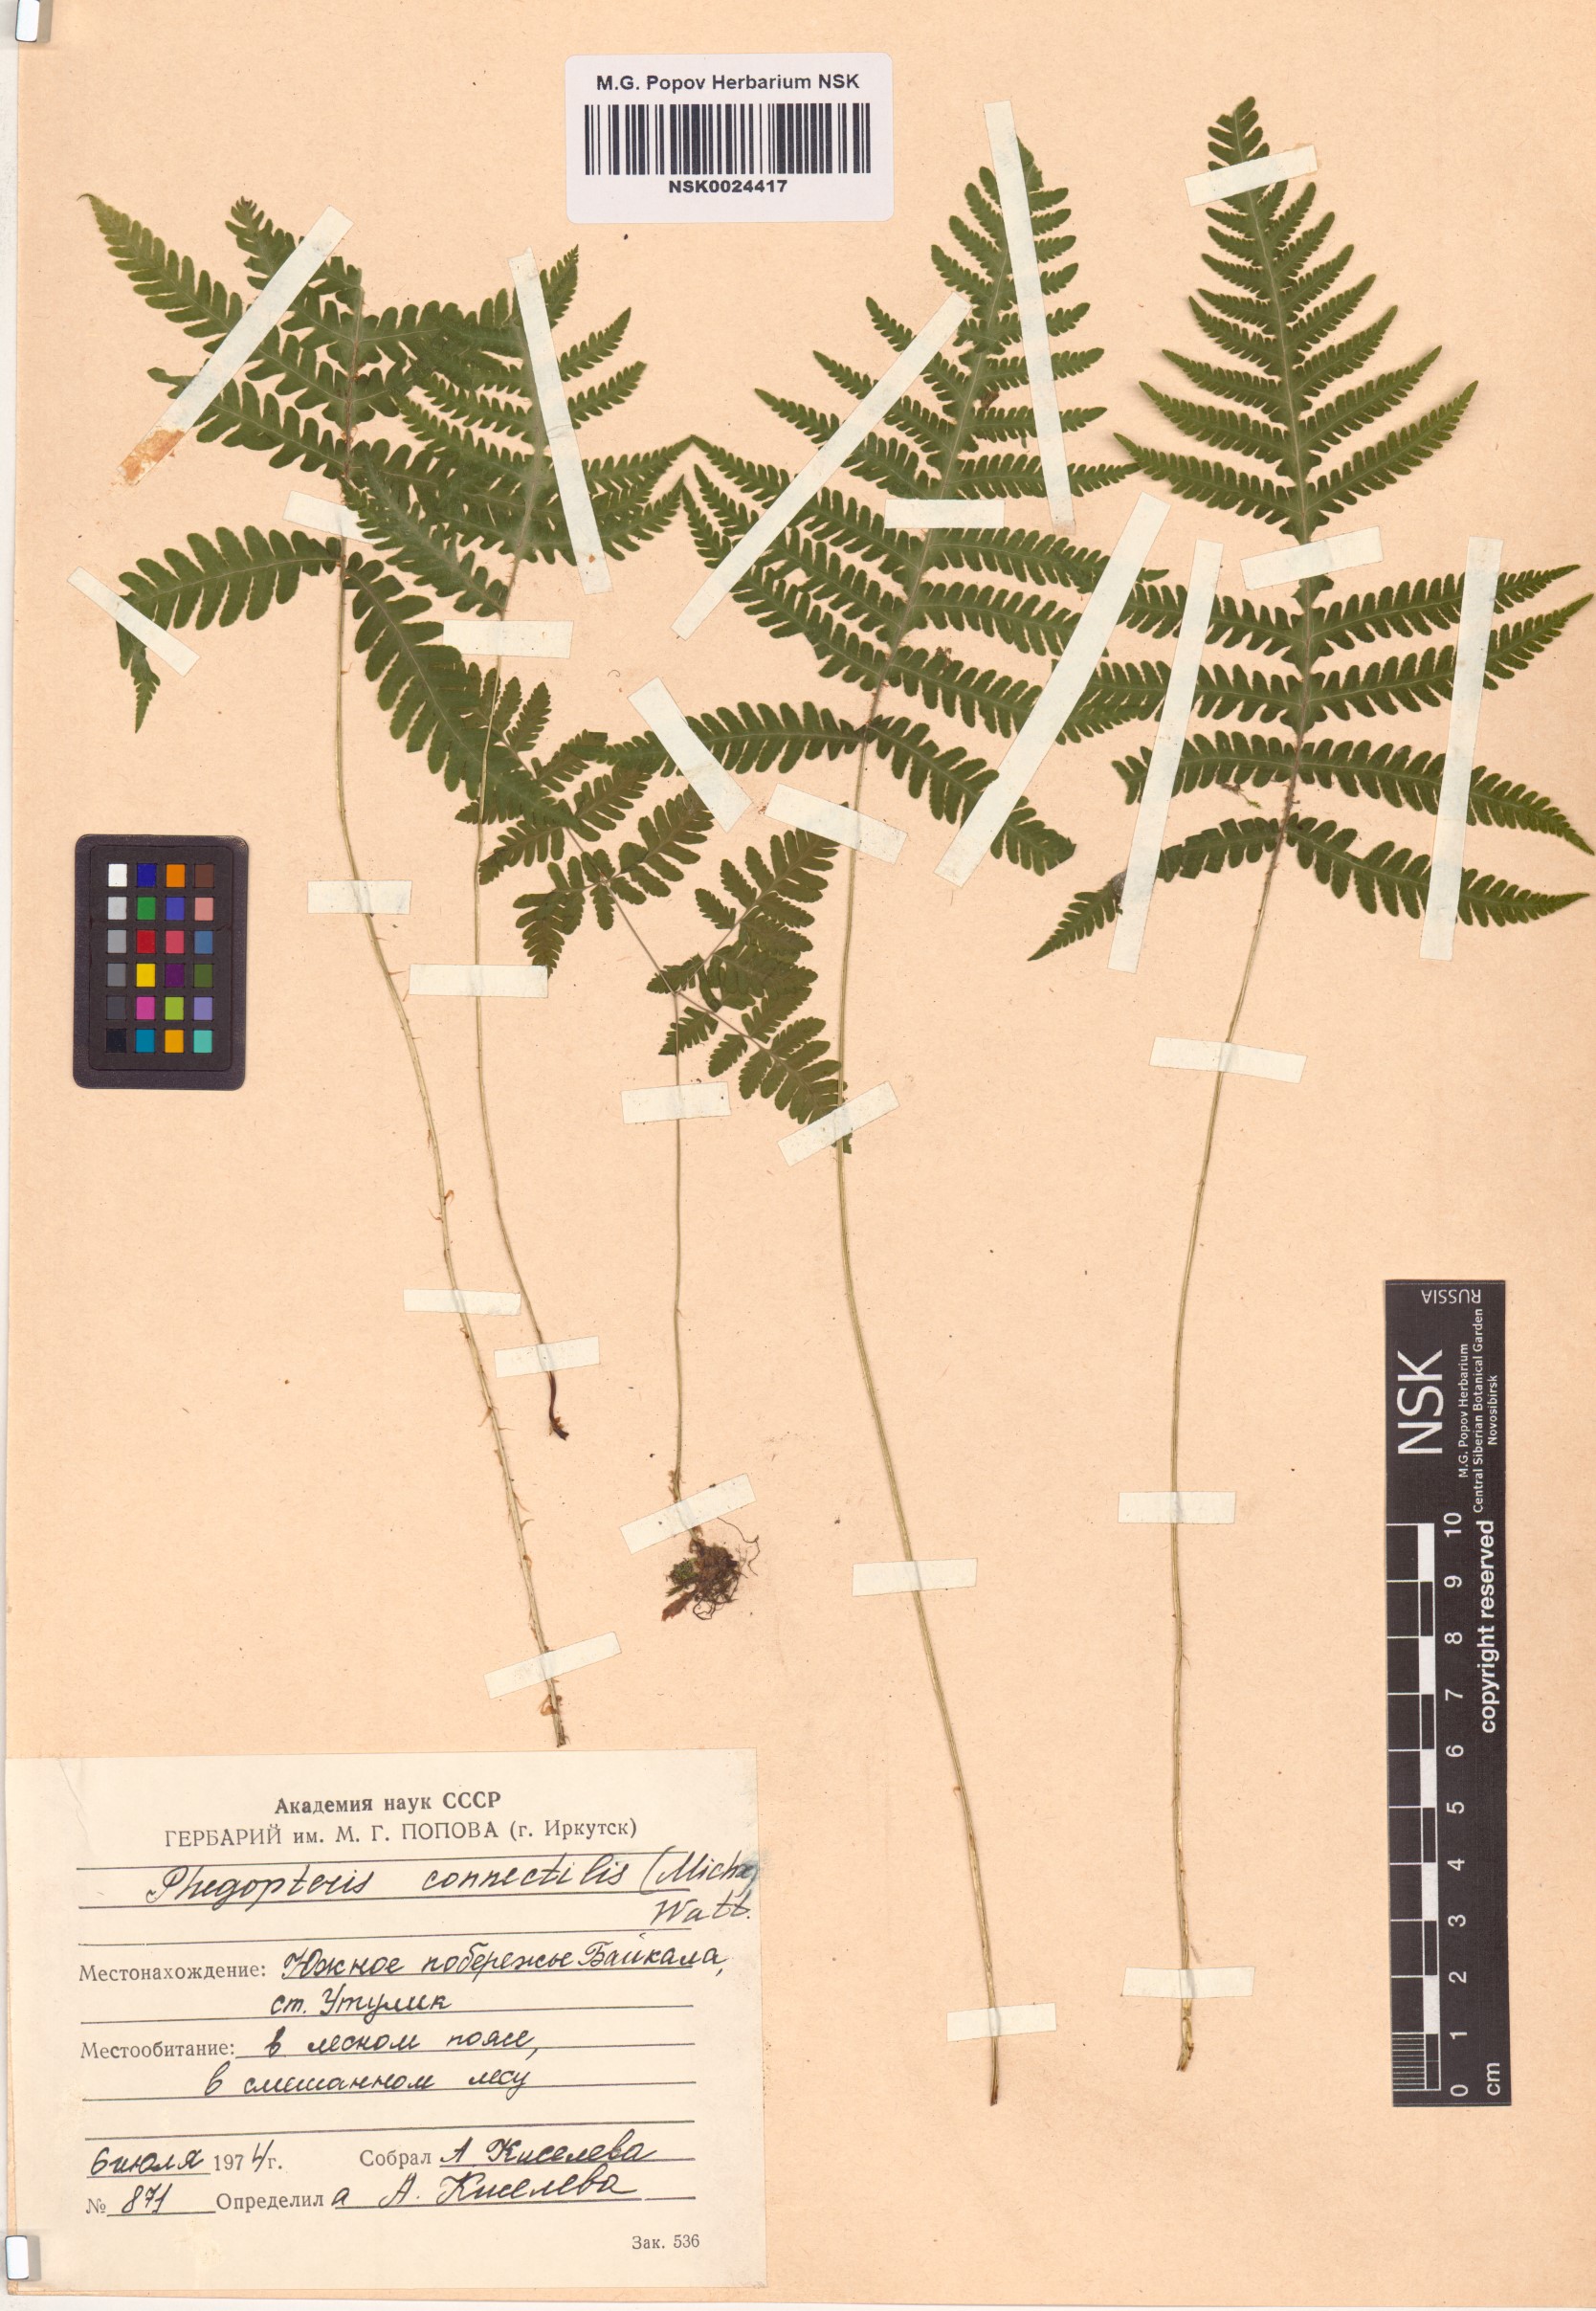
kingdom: Plantae
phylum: Tracheophyta
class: Polypodiopsida
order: Polypodiales
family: Thelypteridaceae
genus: Phegopteris
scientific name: Phegopteris connectilis
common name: Beech fern
